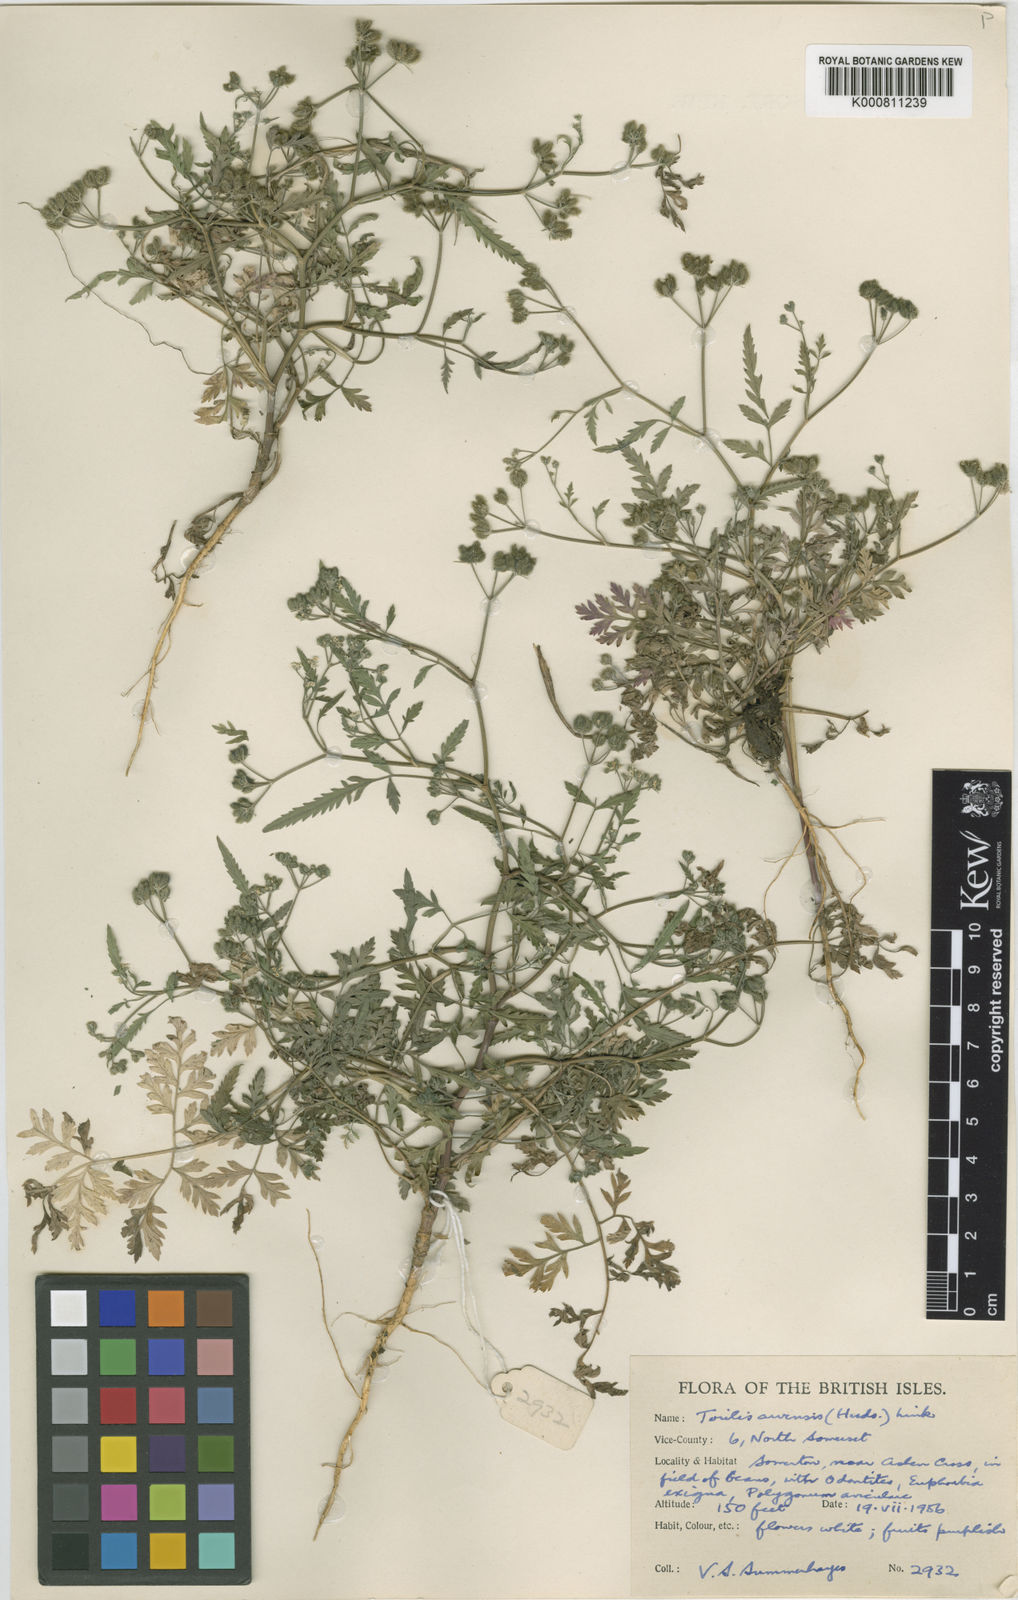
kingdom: Plantae
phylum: Tracheophyta
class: Magnoliopsida
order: Apiales
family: Apiaceae
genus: Torilis
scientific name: Torilis arvensis
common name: Spreading hedge-parsley
